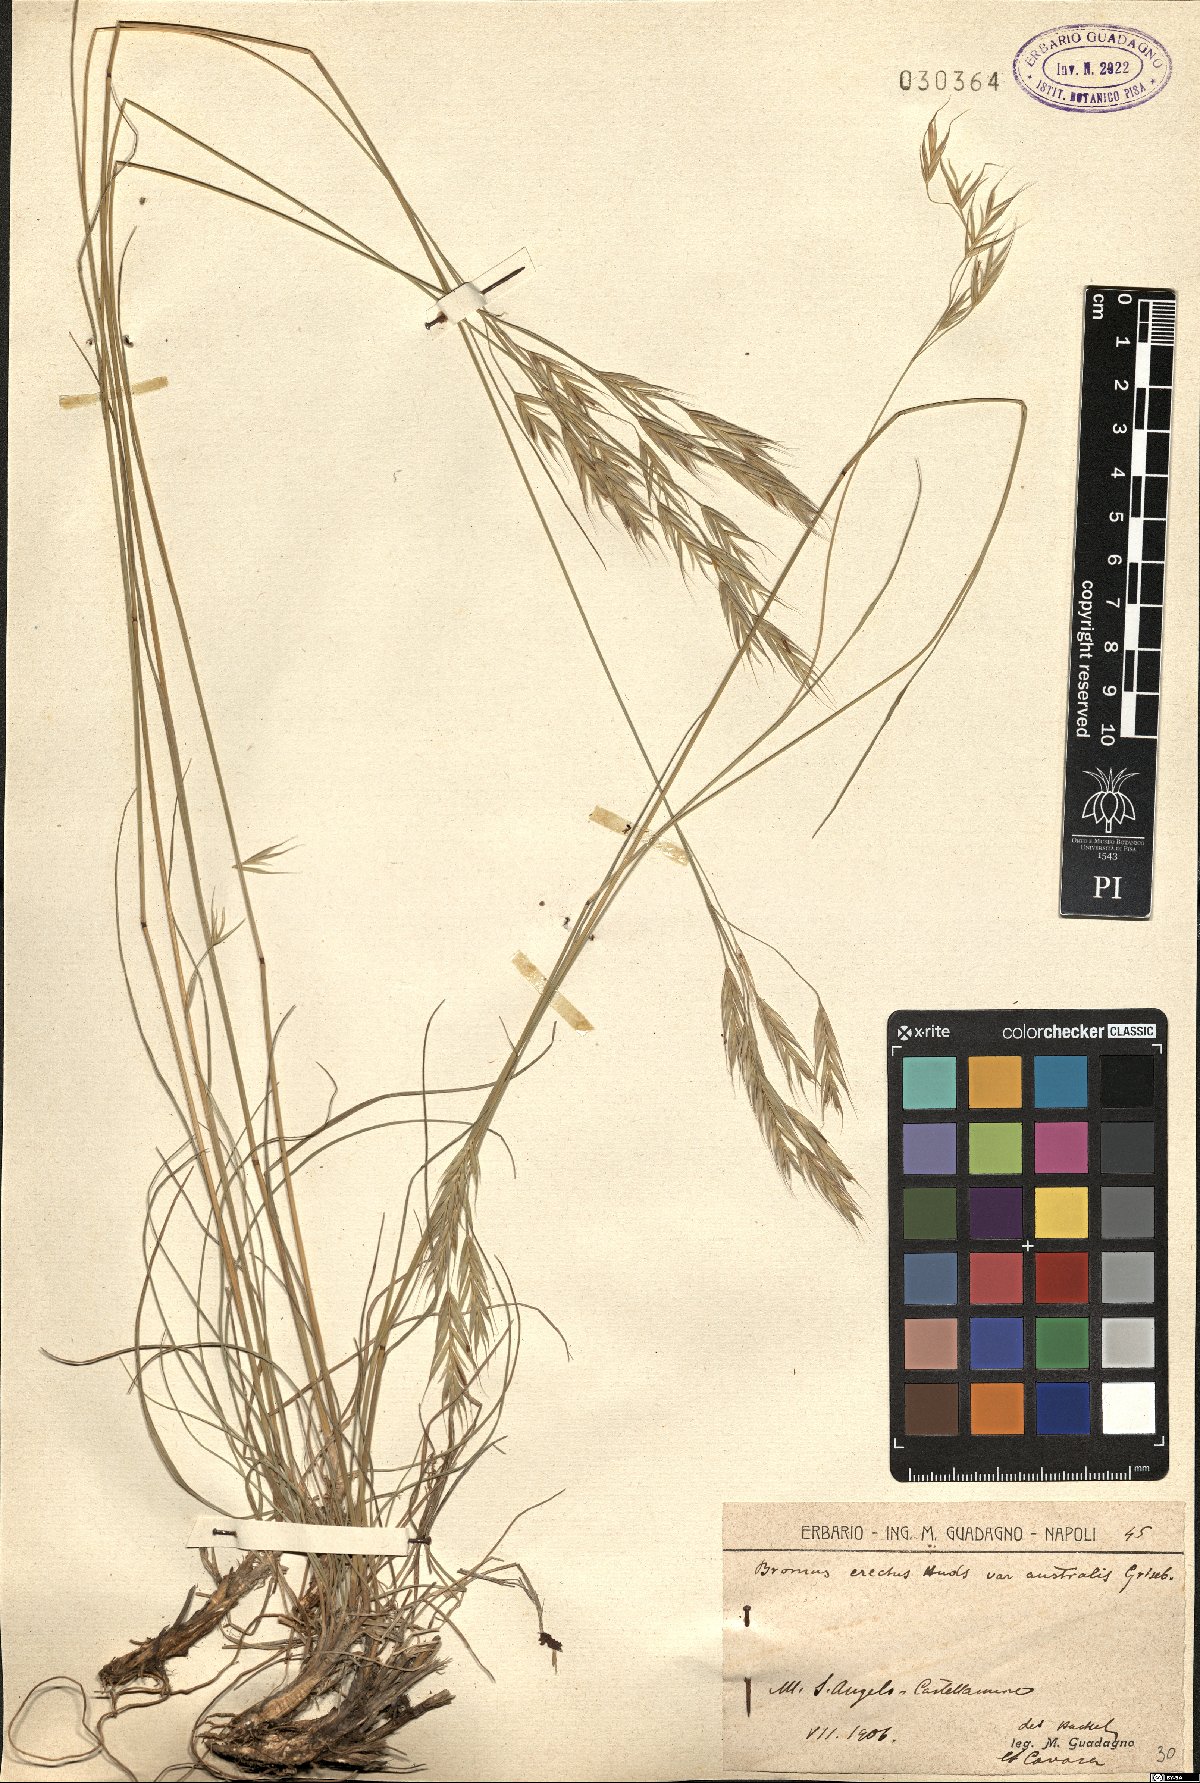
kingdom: Plantae
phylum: Tracheophyta
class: Liliopsida
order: Poales
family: Poaceae
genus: Bromus
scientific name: Bromus condensatus
